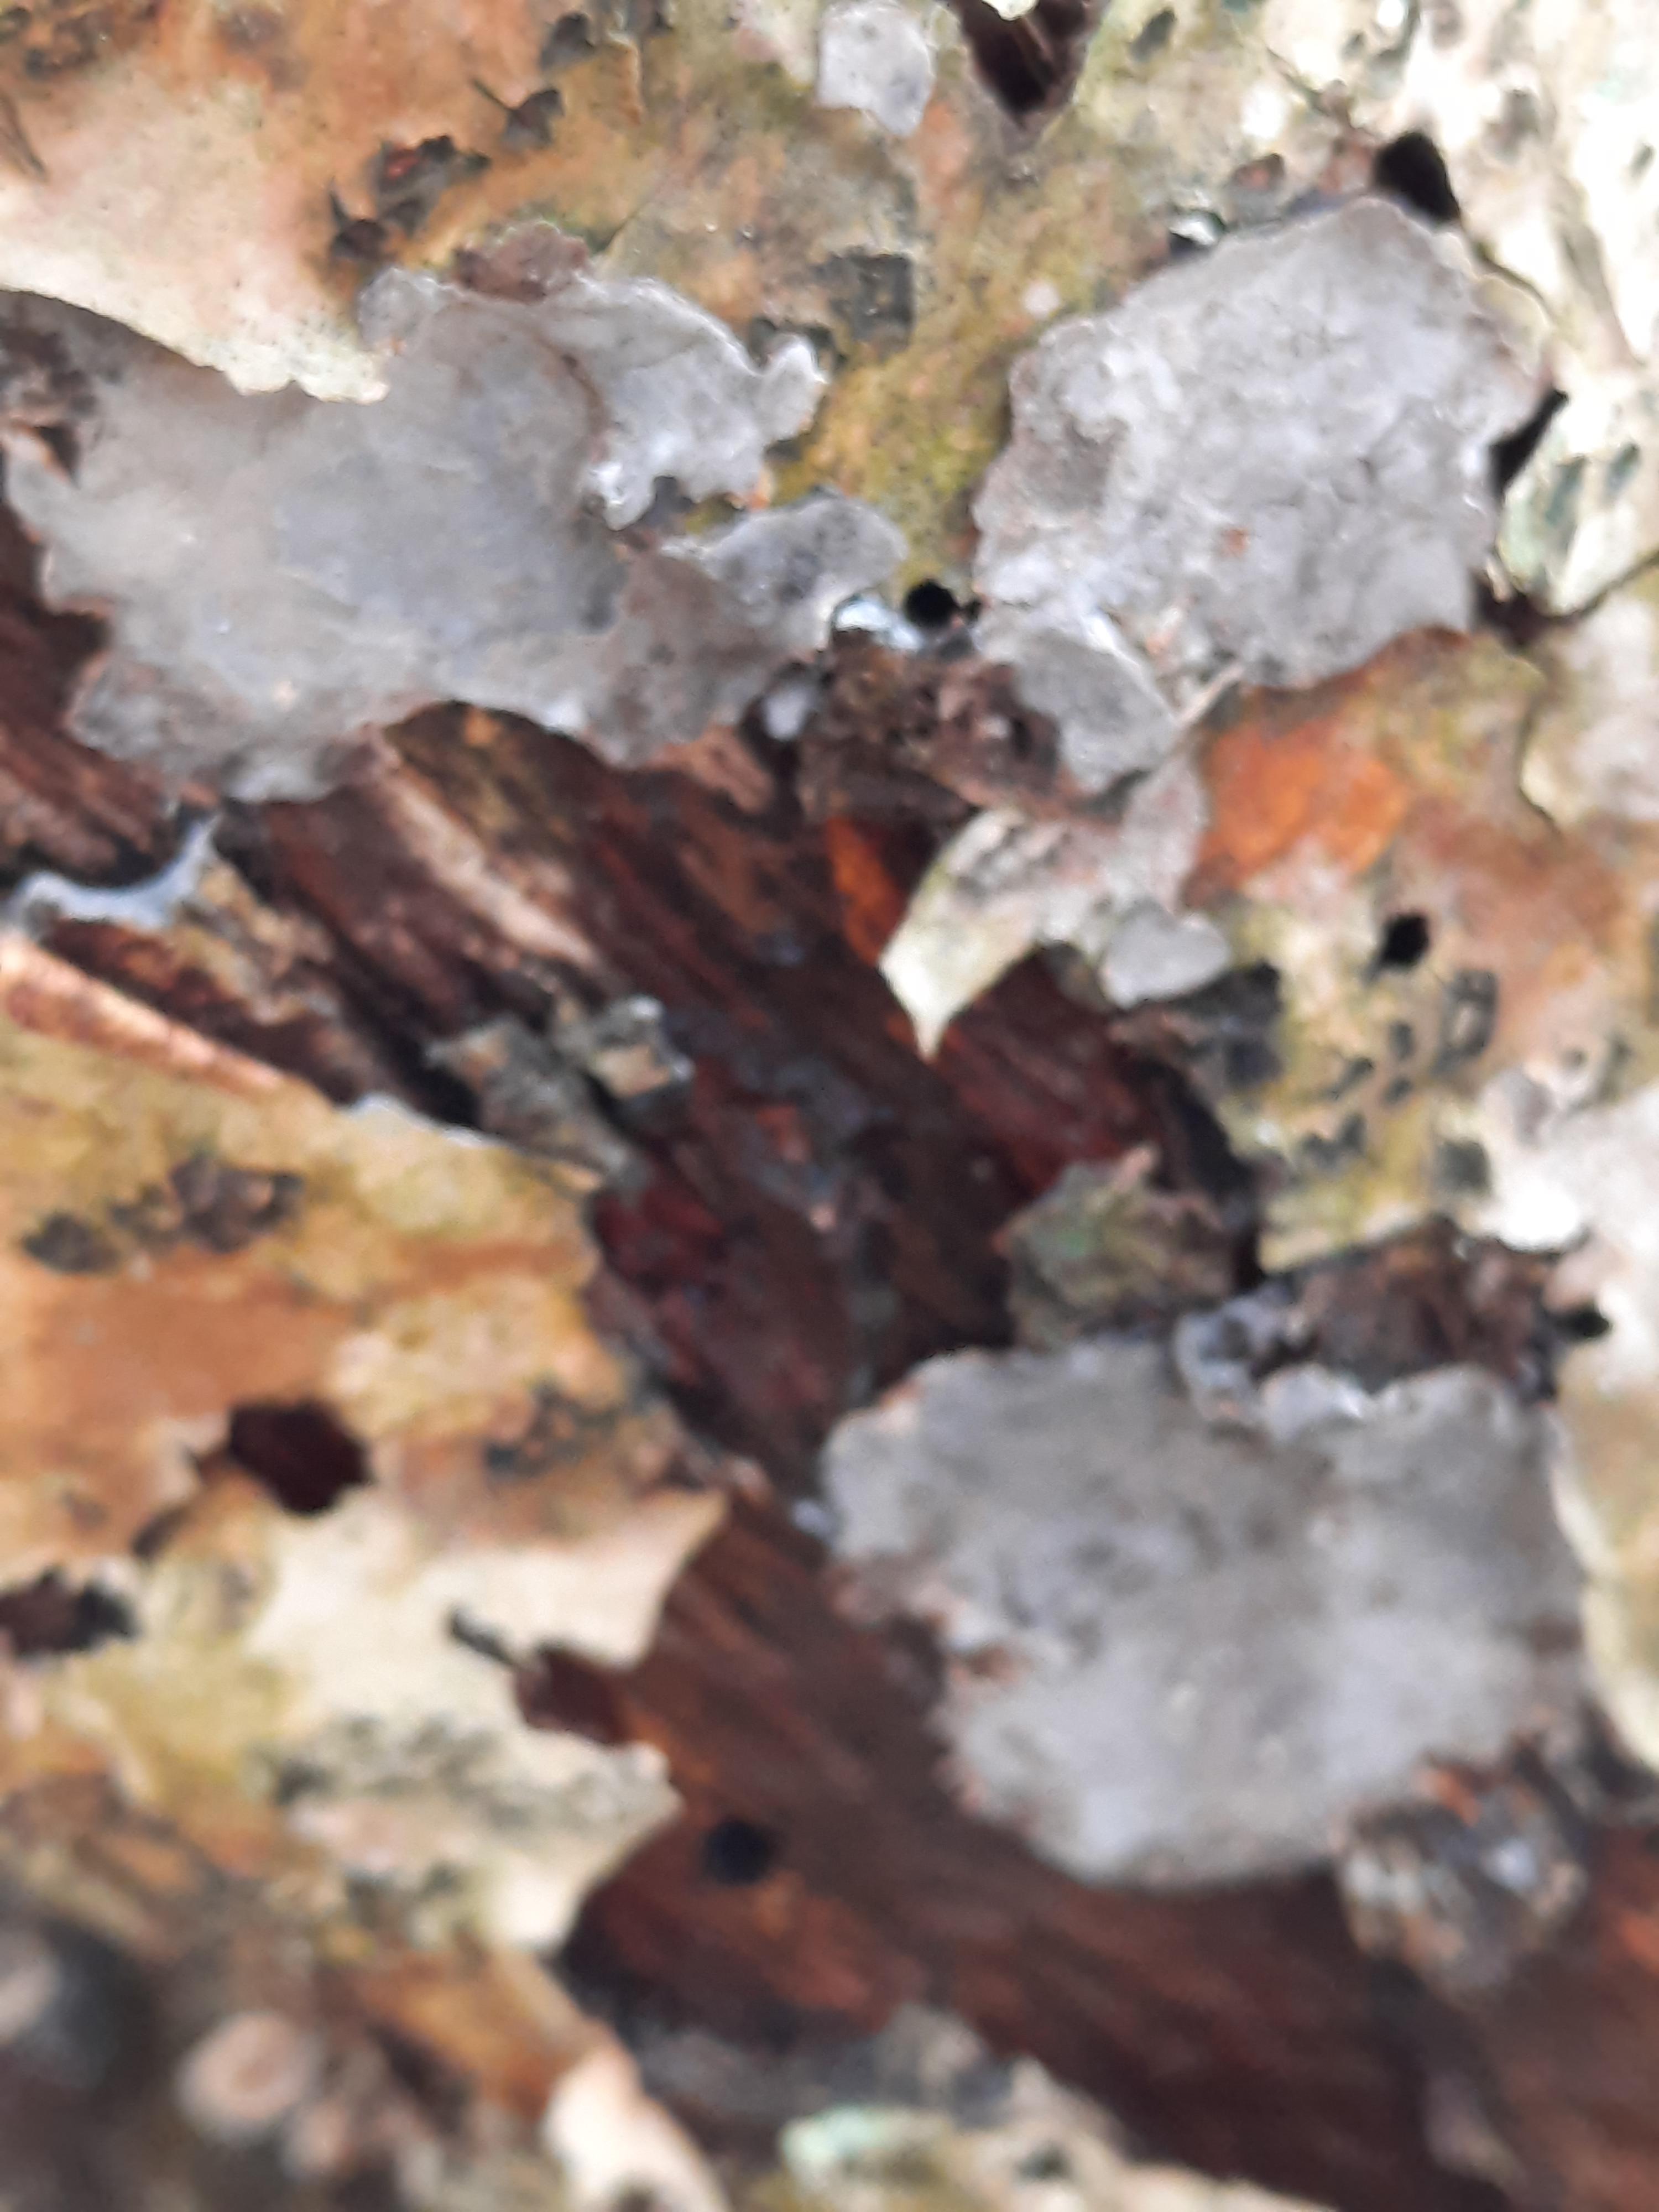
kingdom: Fungi
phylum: Basidiomycota
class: Agaricomycetes
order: Russulales
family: Stereaceae
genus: Stereum
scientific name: Stereum rugosum
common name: rynket lædersvamp
